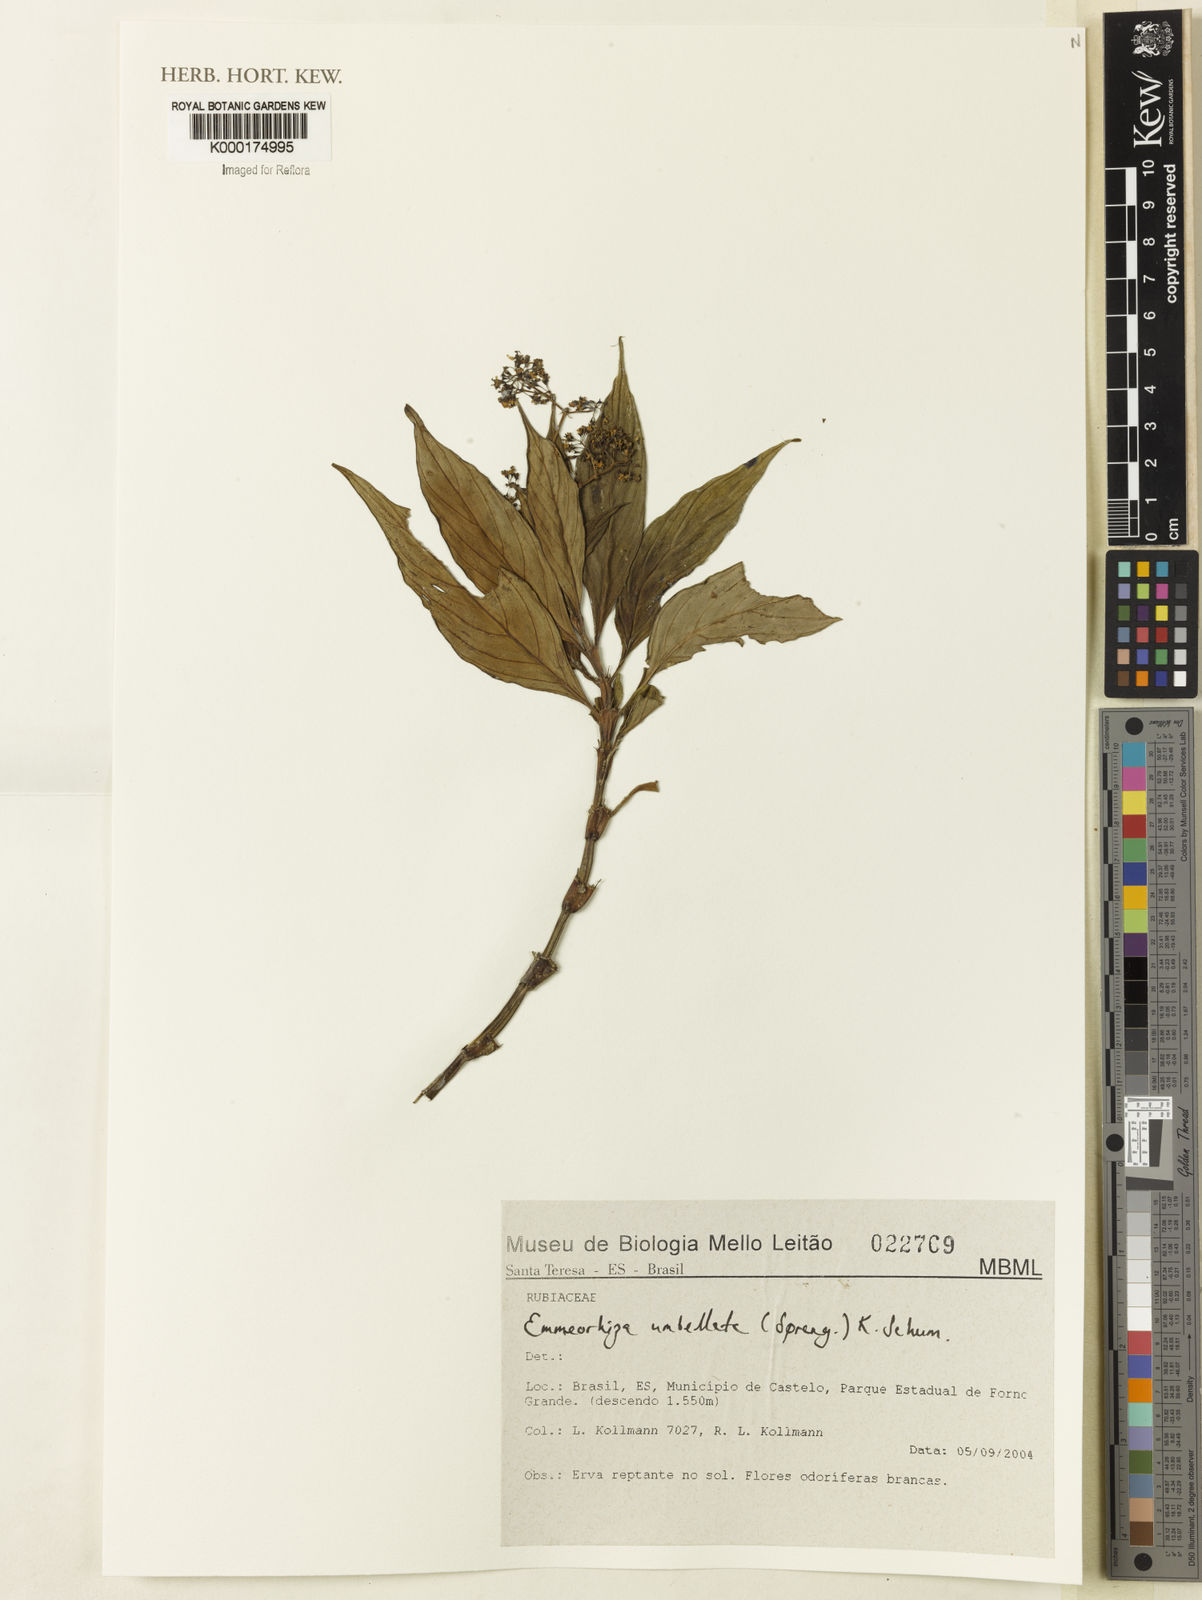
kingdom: Plantae
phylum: Tracheophyta
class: Magnoliopsida
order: Gentianales
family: Rubiaceae
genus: Emmeorhiza
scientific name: Emmeorhiza umbellata
